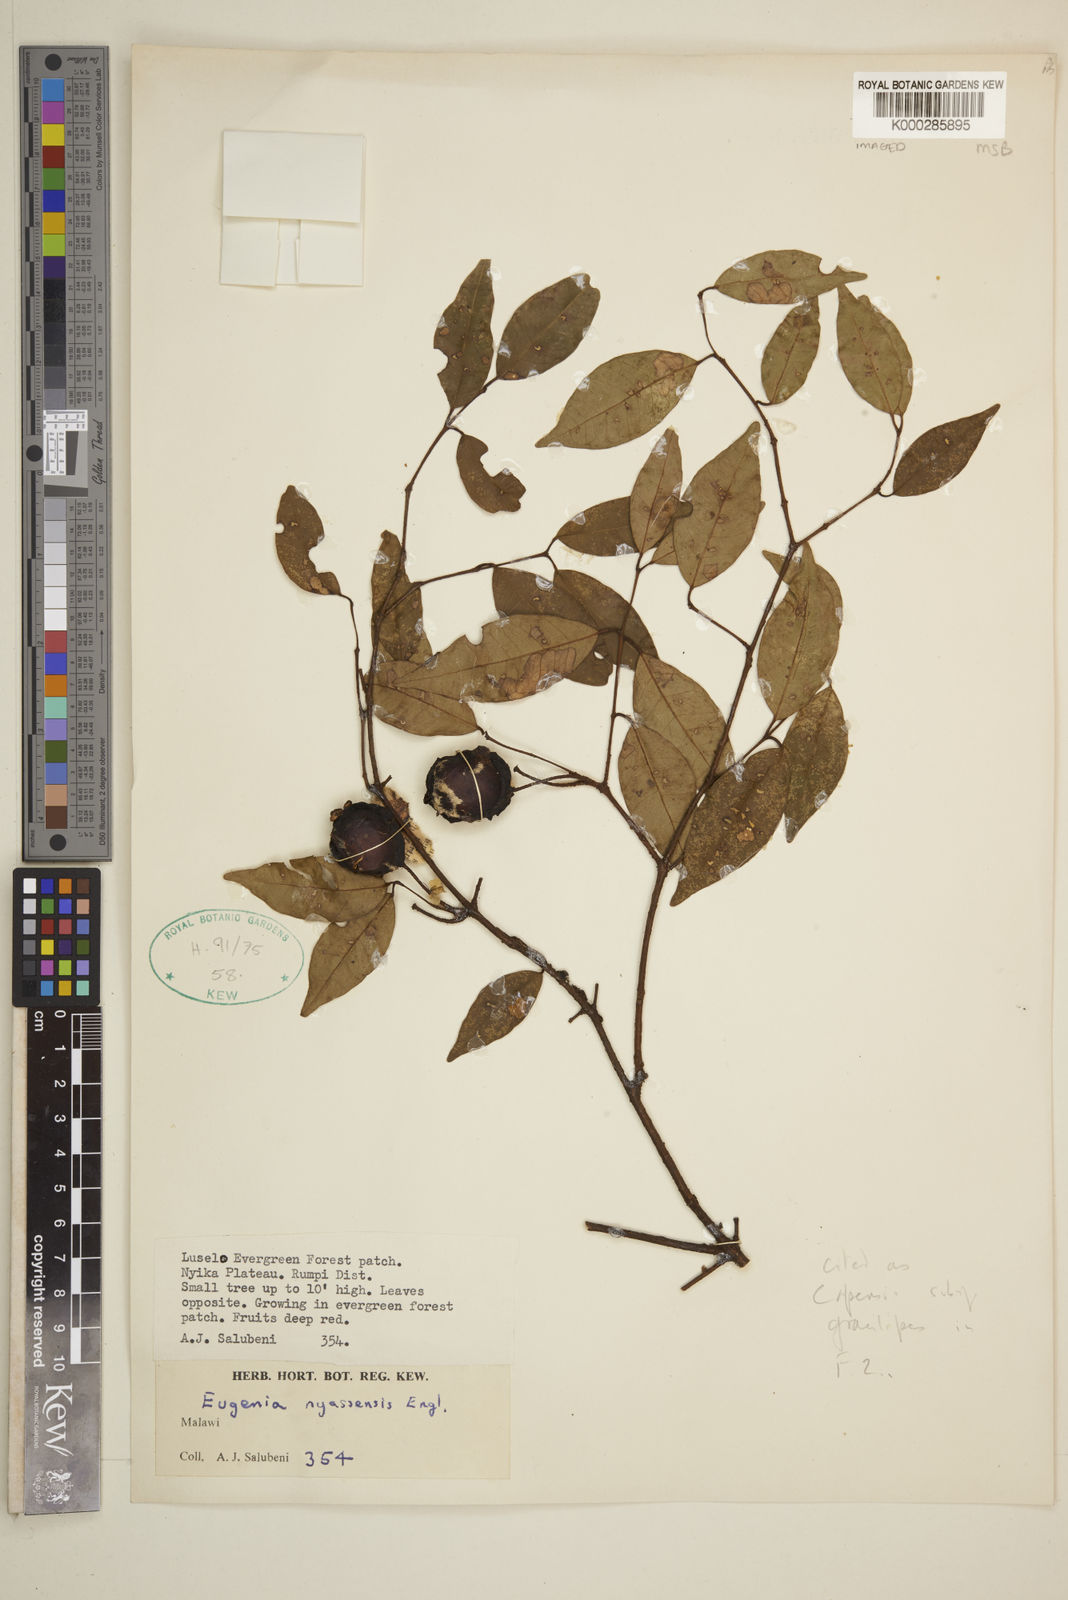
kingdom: Plantae
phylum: Tracheophyta
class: Magnoliopsida
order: Myrtales
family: Myrtaceae
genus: Eugenia
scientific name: Eugenia capensis
